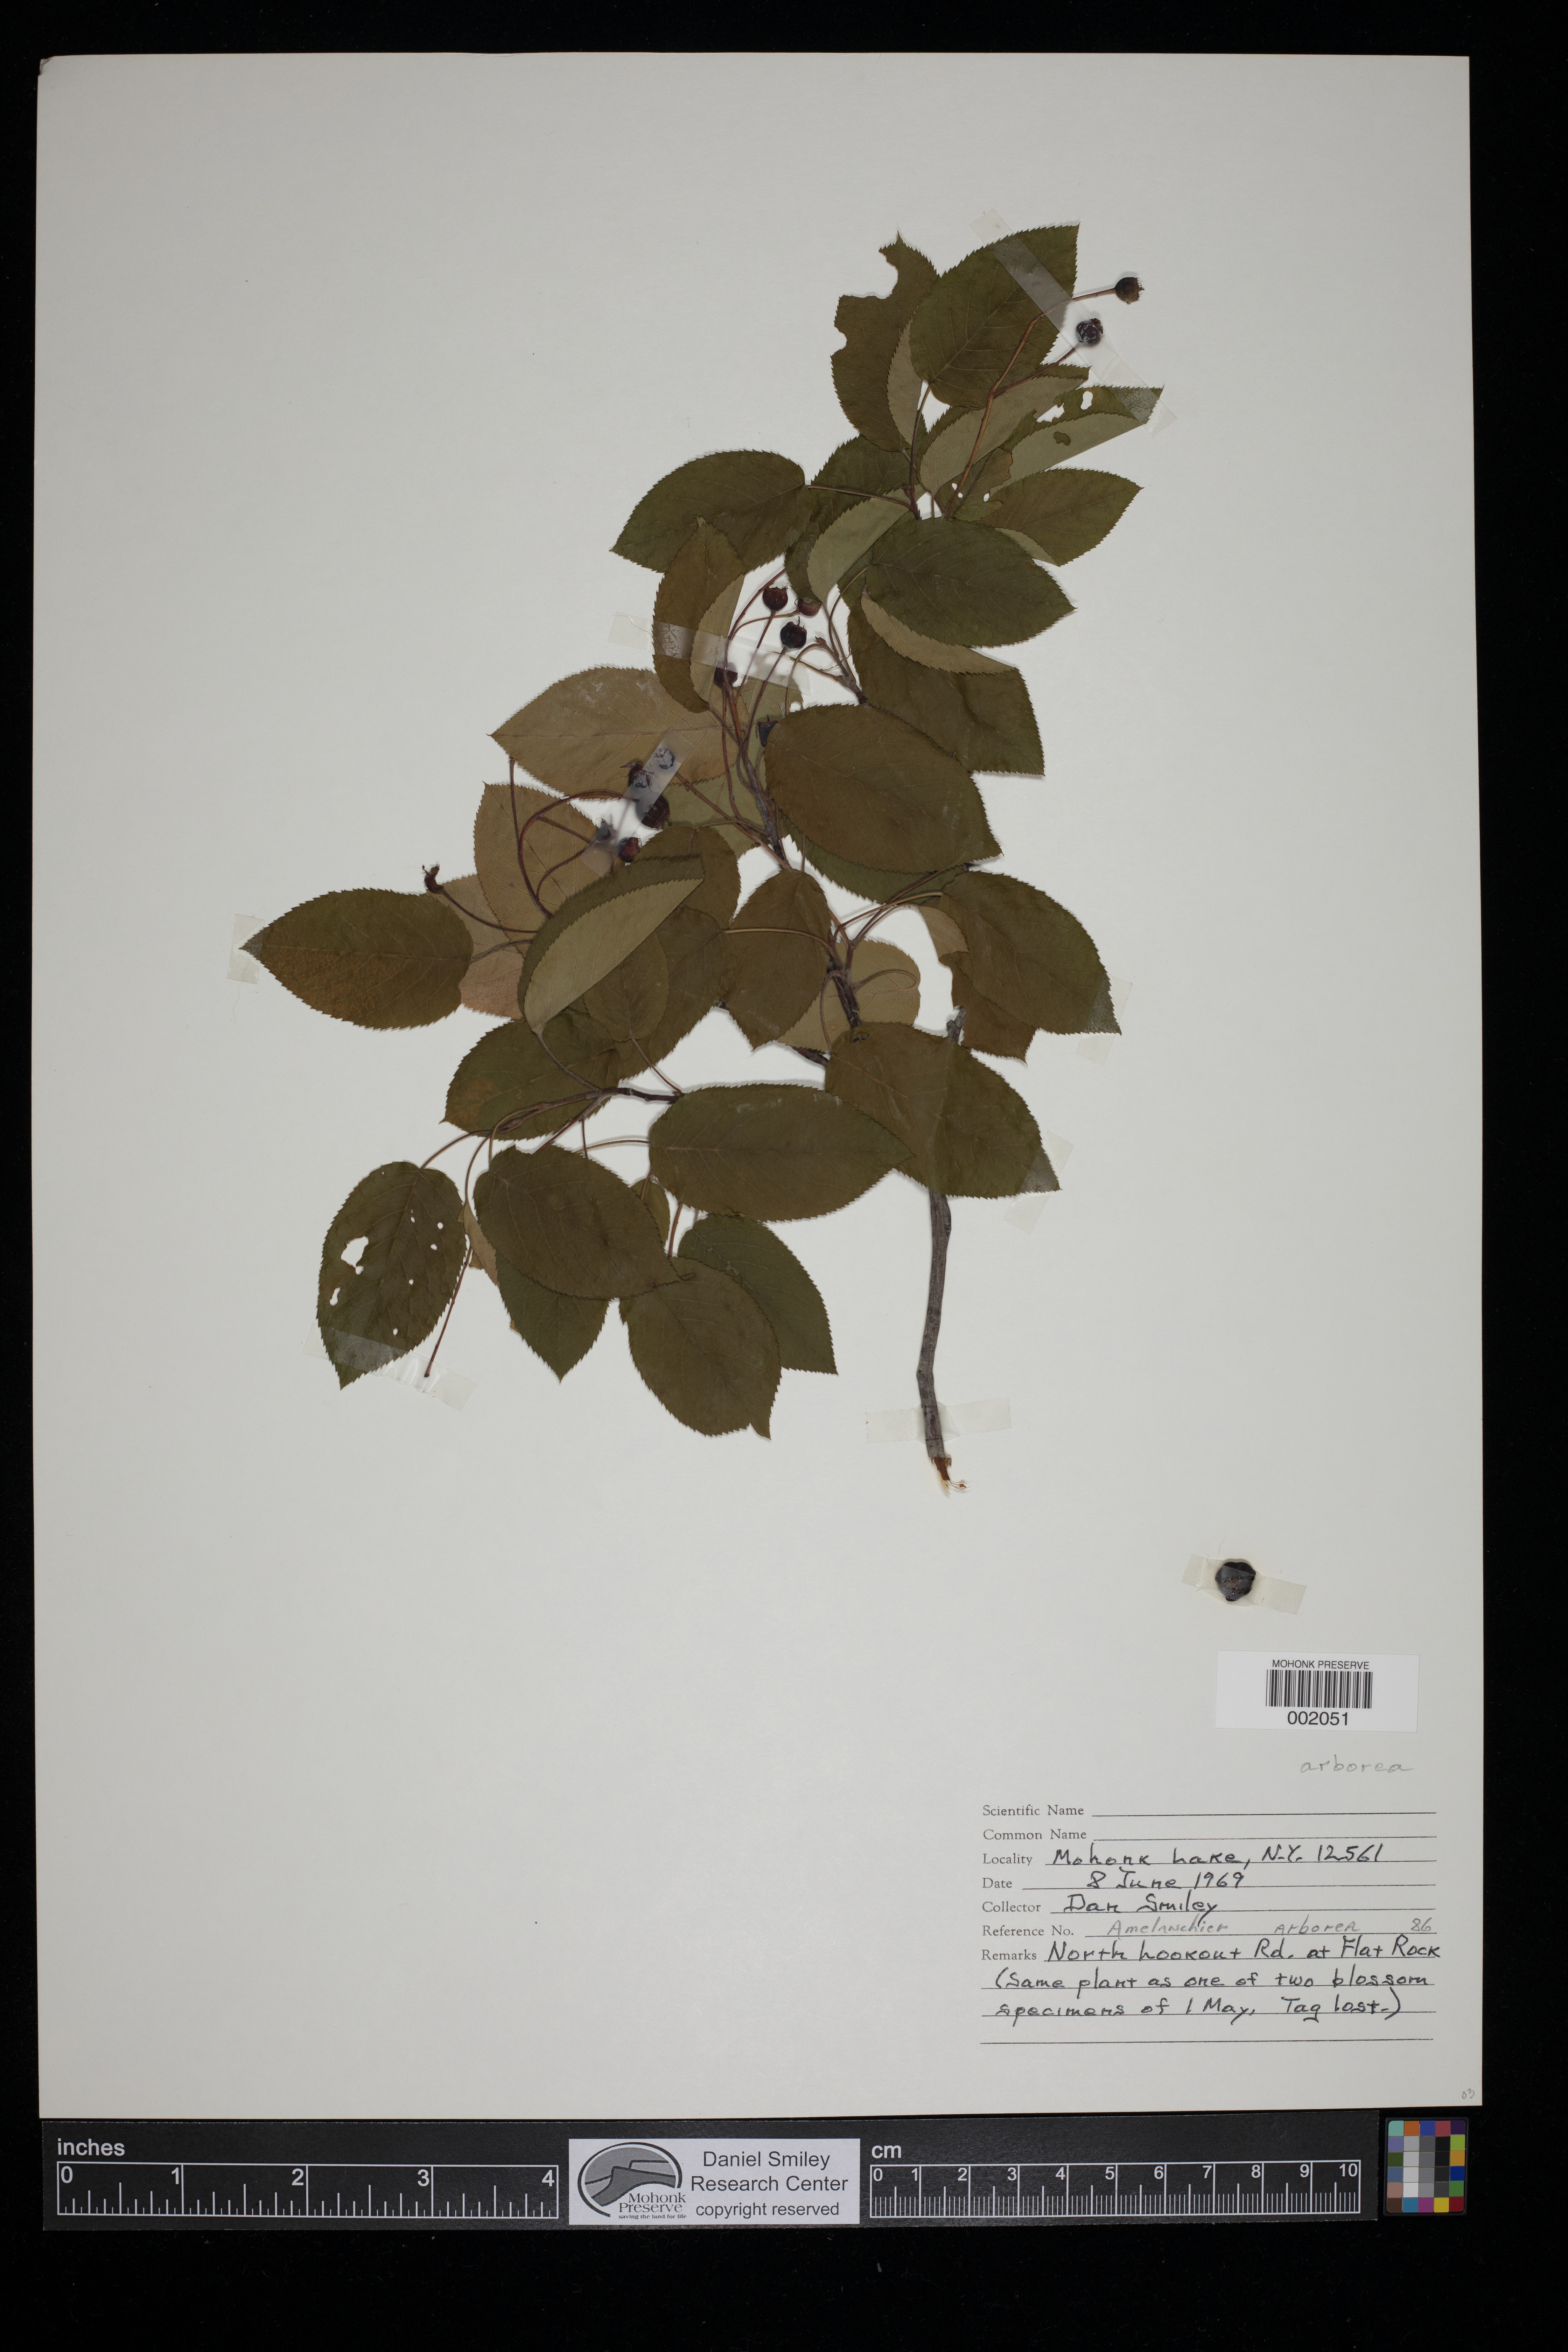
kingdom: Plantae
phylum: Tracheophyta
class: Magnoliopsida
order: Rosales
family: Rosaceae
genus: Amelanchier
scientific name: Amelanchier arborea
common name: Downy serviceberry
